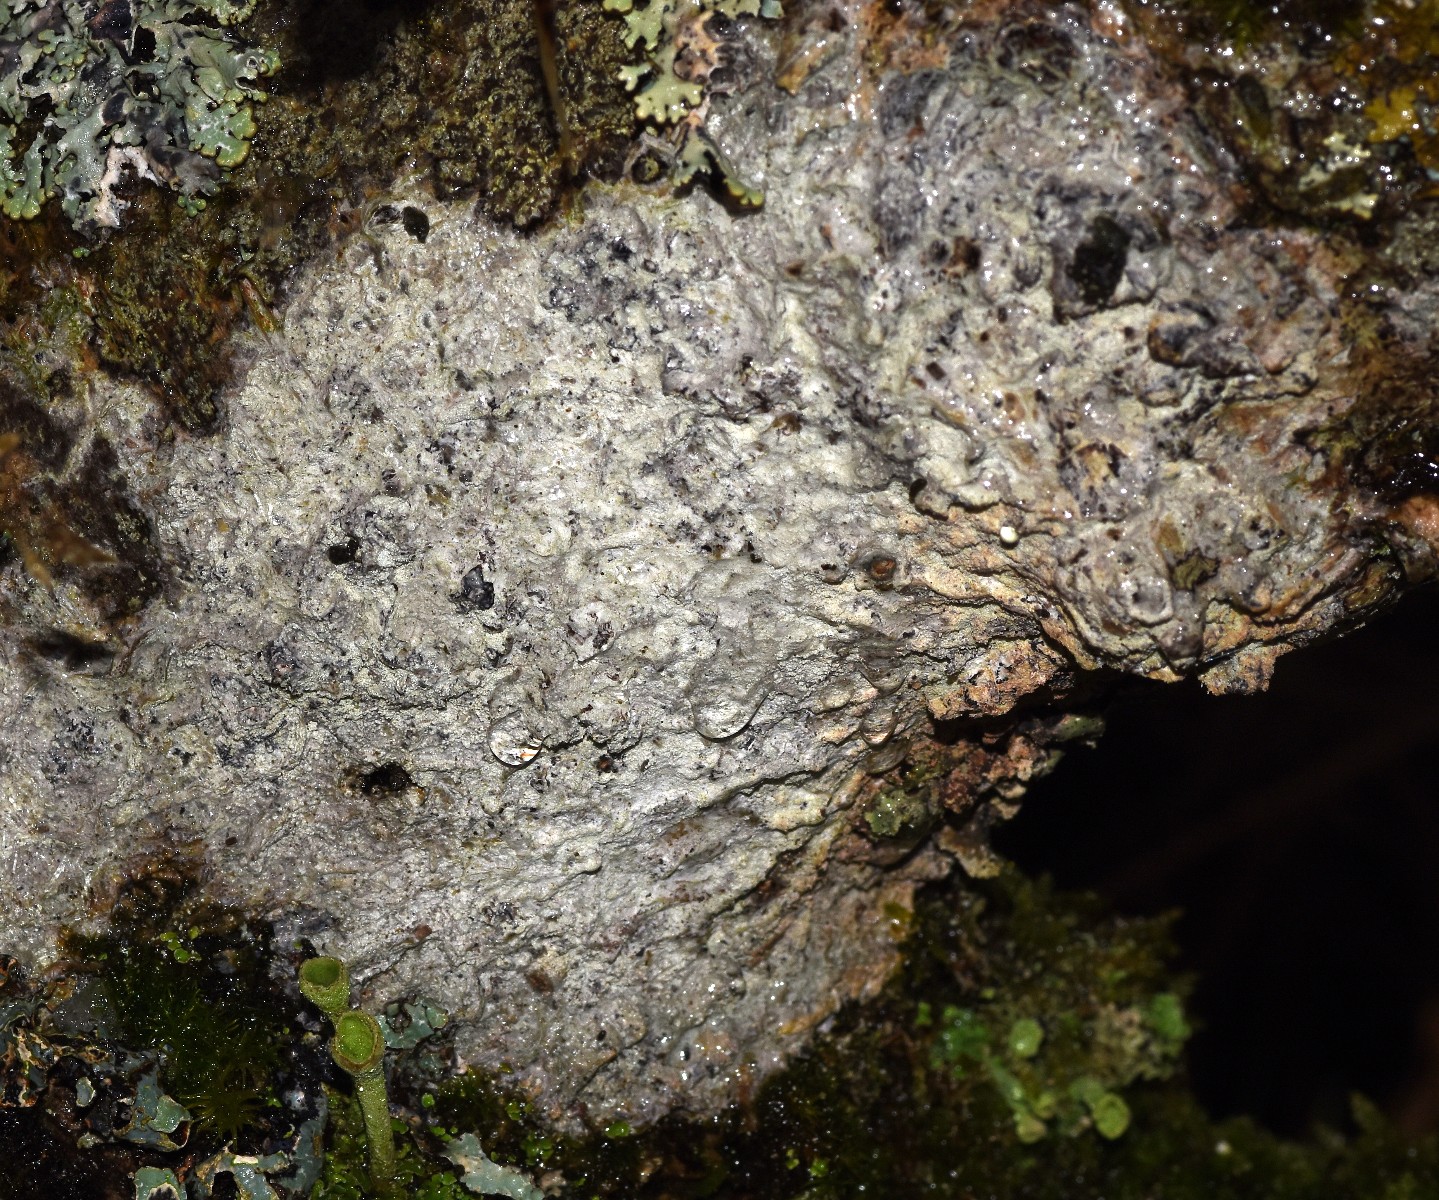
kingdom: Fungi
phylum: Ascomycota
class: Lecanoromycetes
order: Ostropales
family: Phlyctidaceae
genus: Phlyctis
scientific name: Phlyctis argena
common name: almindelig sølvlav
